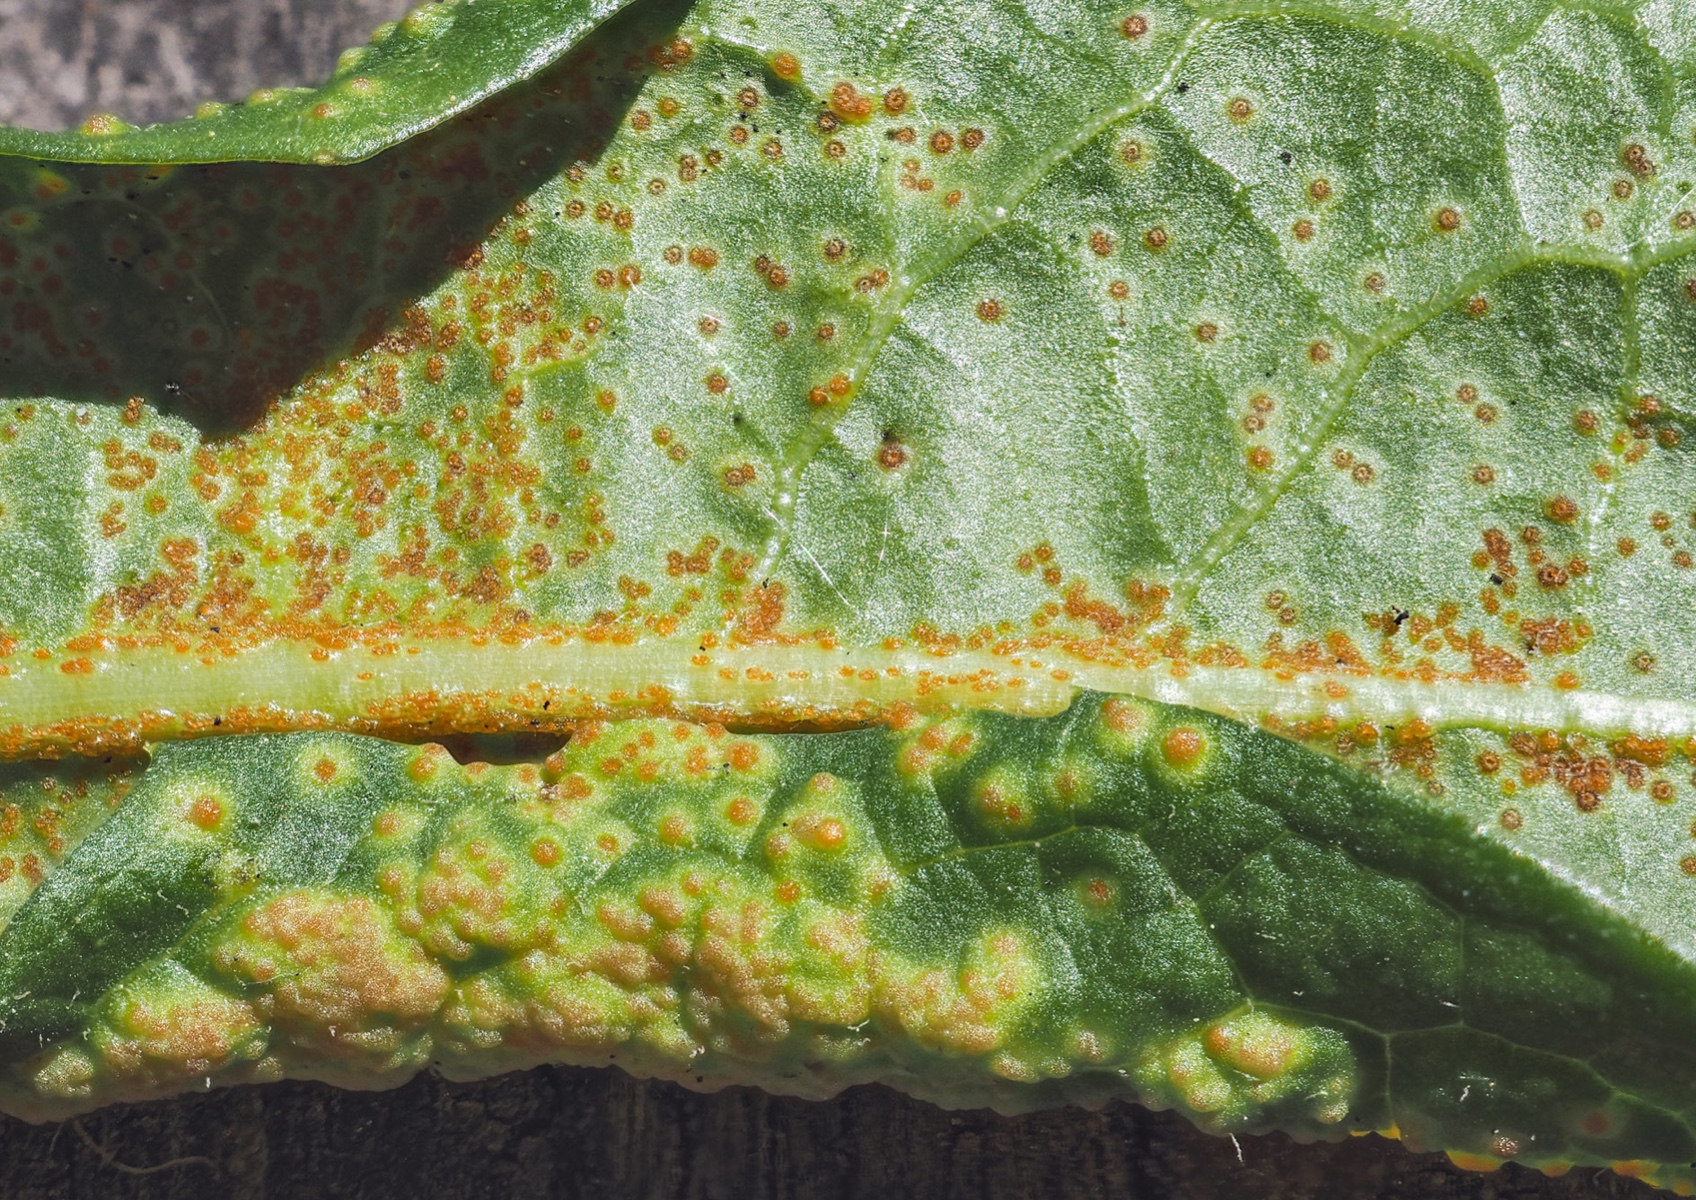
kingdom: Fungi
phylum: Chytridiomycota
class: Chytridiomycetes
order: Chytridiales
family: Synchytriaceae
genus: Synchytrium
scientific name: Synchytrium taraxaci
